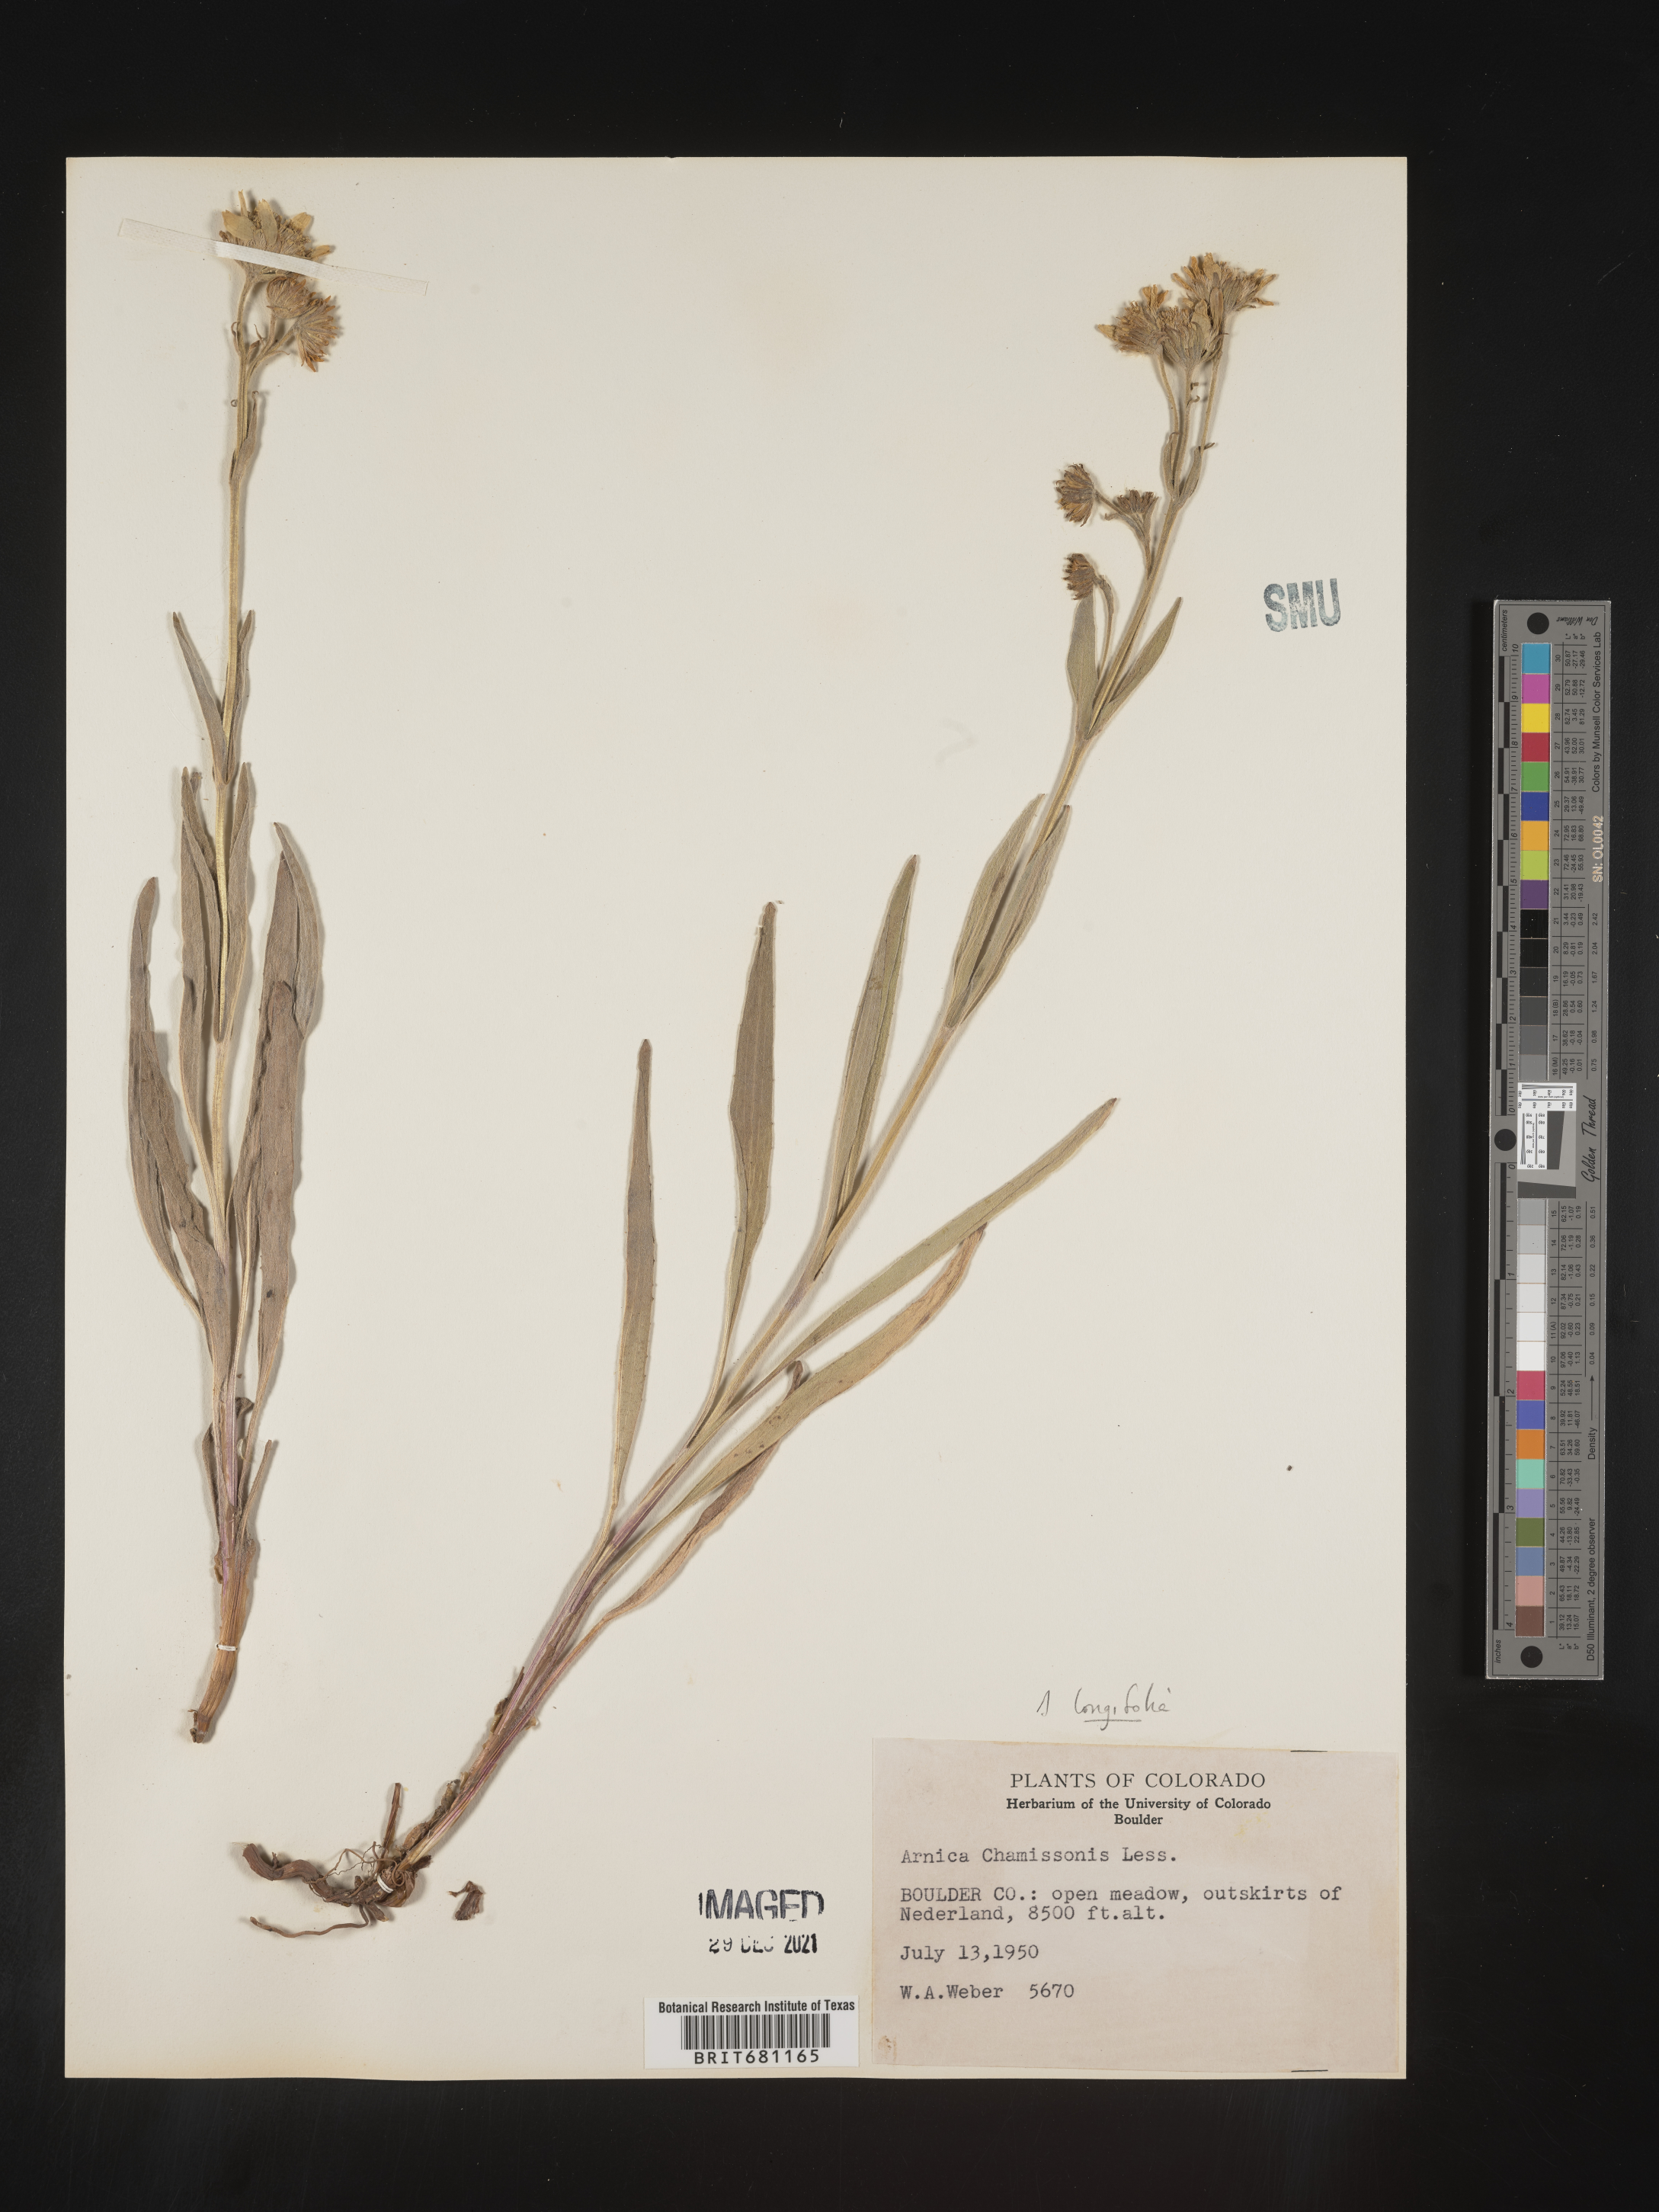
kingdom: Plantae
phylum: Tracheophyta
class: Magnoliopsida
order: Asterales
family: Asteraceae
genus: Arnica
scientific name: Arnica chamissonis
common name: Leafy arnica
